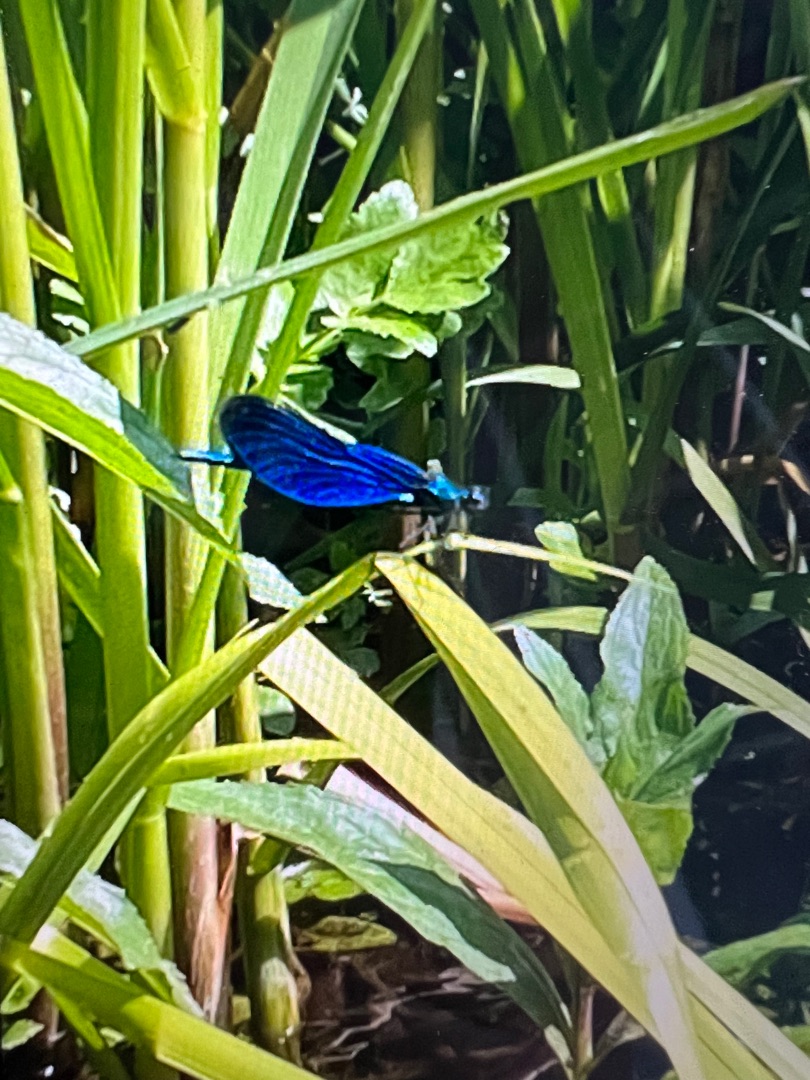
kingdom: Animalia
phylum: Arthropoda
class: Insecta
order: Odonata
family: Calopterygidae
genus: Calopteryx
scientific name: Calopteryx virgo
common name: Blåvinget pragtvandnymfe
